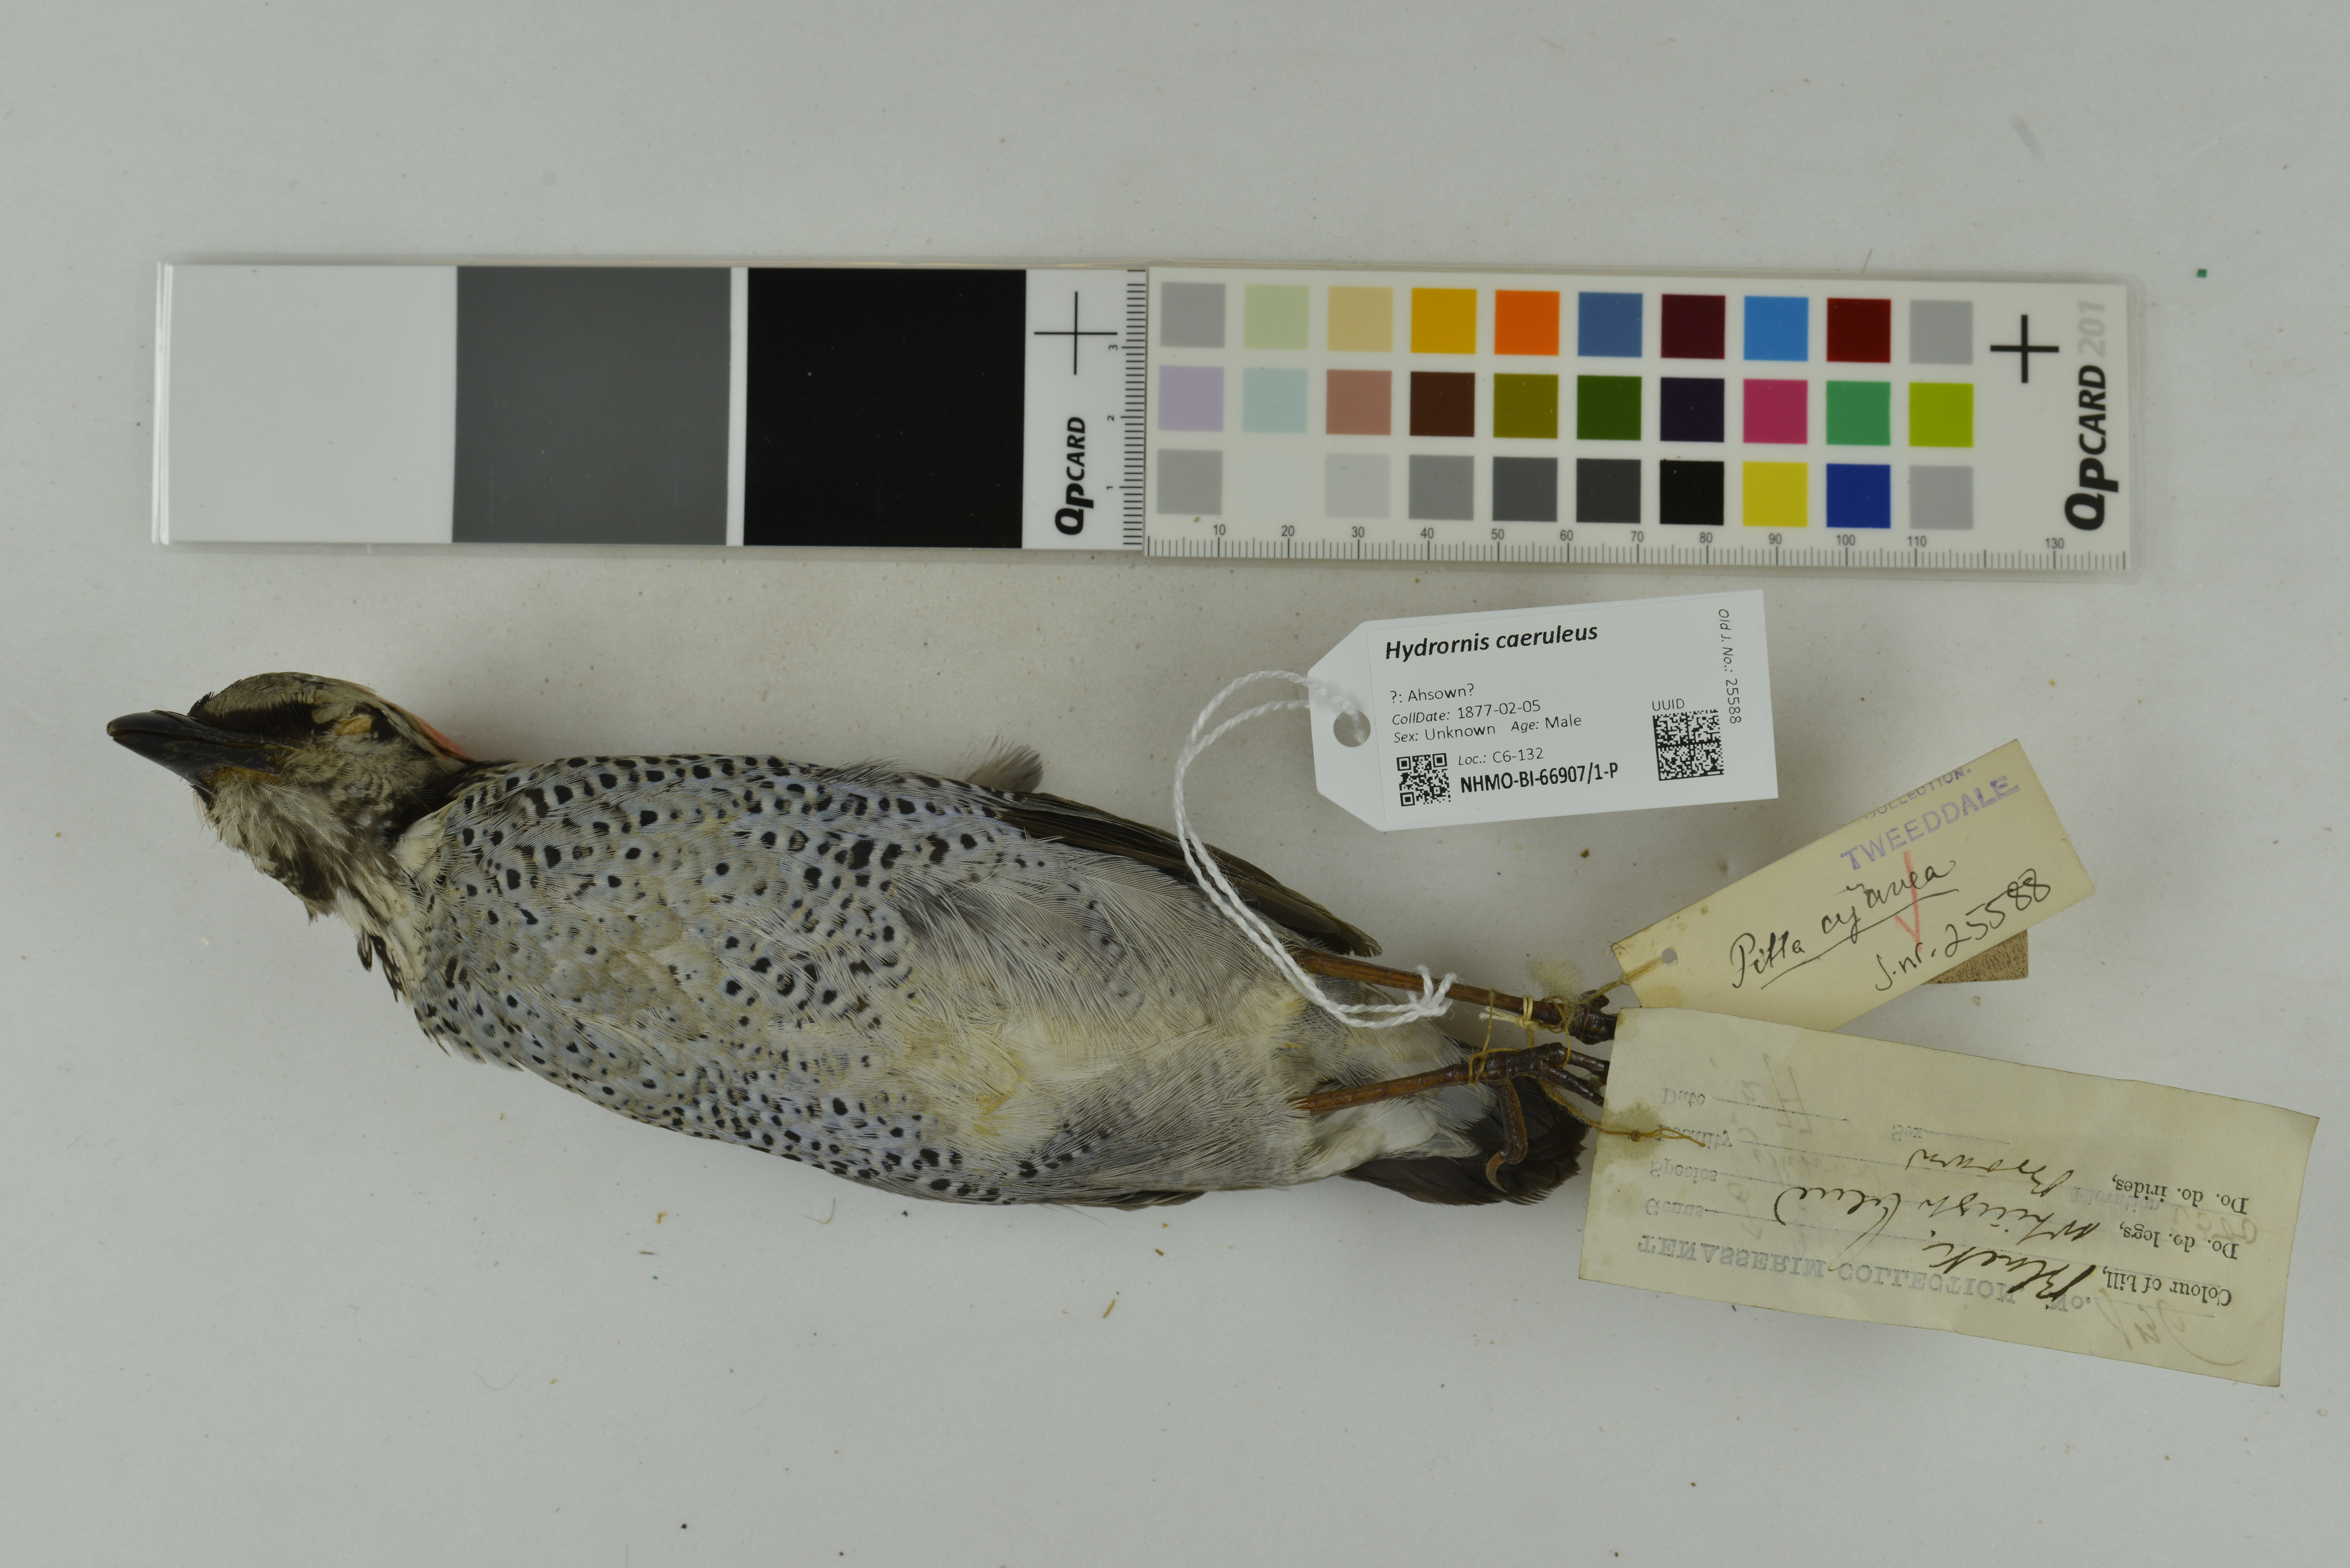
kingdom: Animalia
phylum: Chordata
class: Aves
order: Passeriformes
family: Pittidae
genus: Pitta
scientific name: Pitta caerulea
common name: Giant pitta
